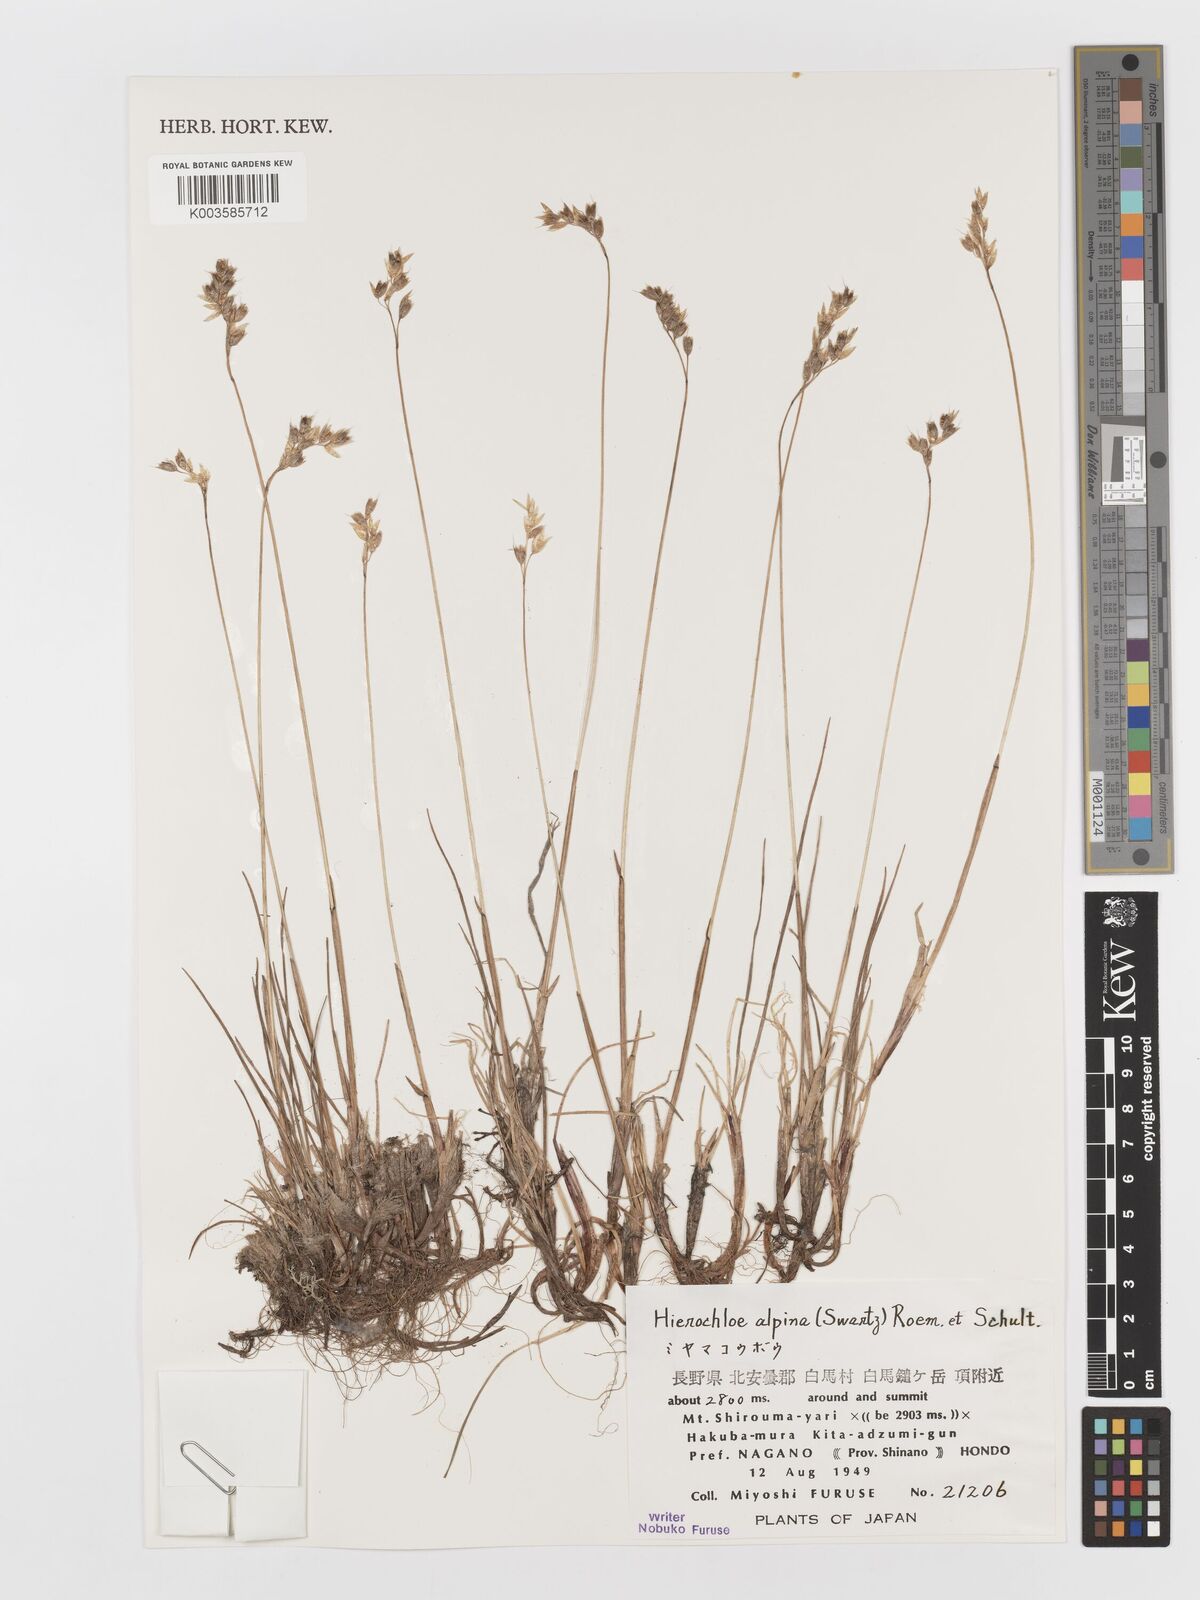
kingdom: Plantae
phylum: Tracheophyta
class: Liliopsida
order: Poales
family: Poaceae
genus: Anthoxanthum
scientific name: Anthoxanthum monticola
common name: Alpine sweetgrass
